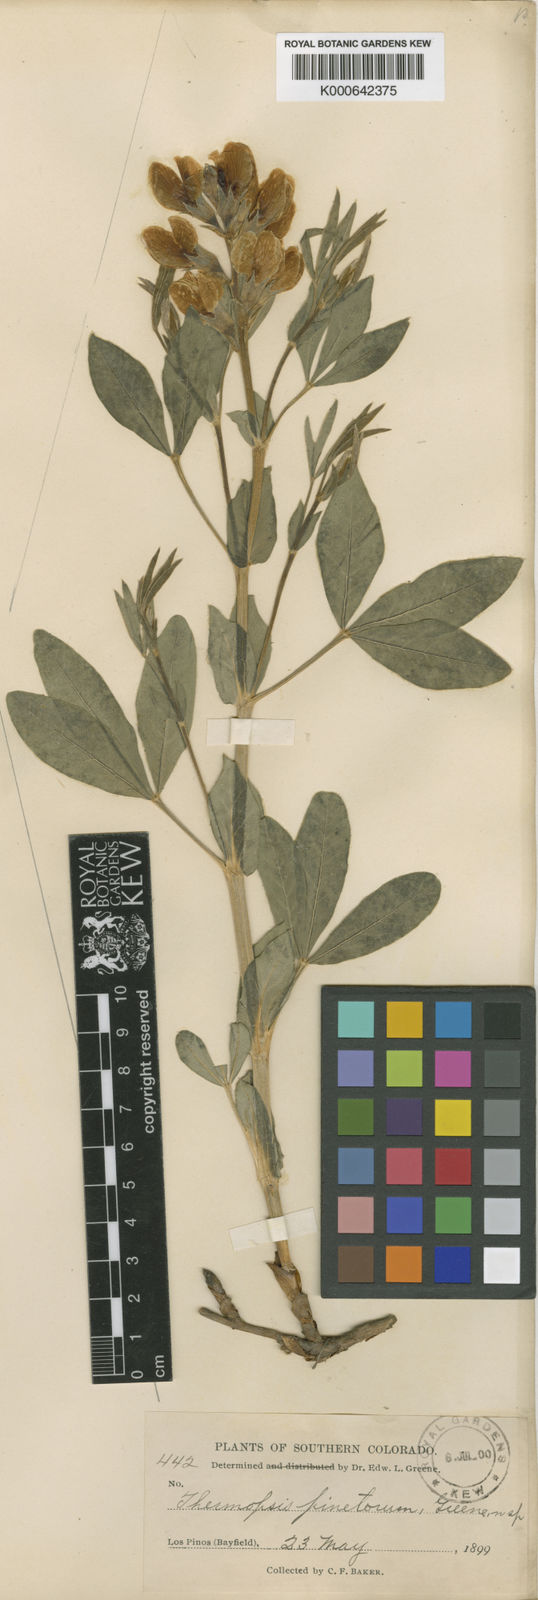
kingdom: Plantae
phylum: Tracheophyta
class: Magnoliopsida
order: Fabales
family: Fabaceae
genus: Thermopsis
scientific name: Thermopsis rhombifolia
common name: Circle-pod-pea
